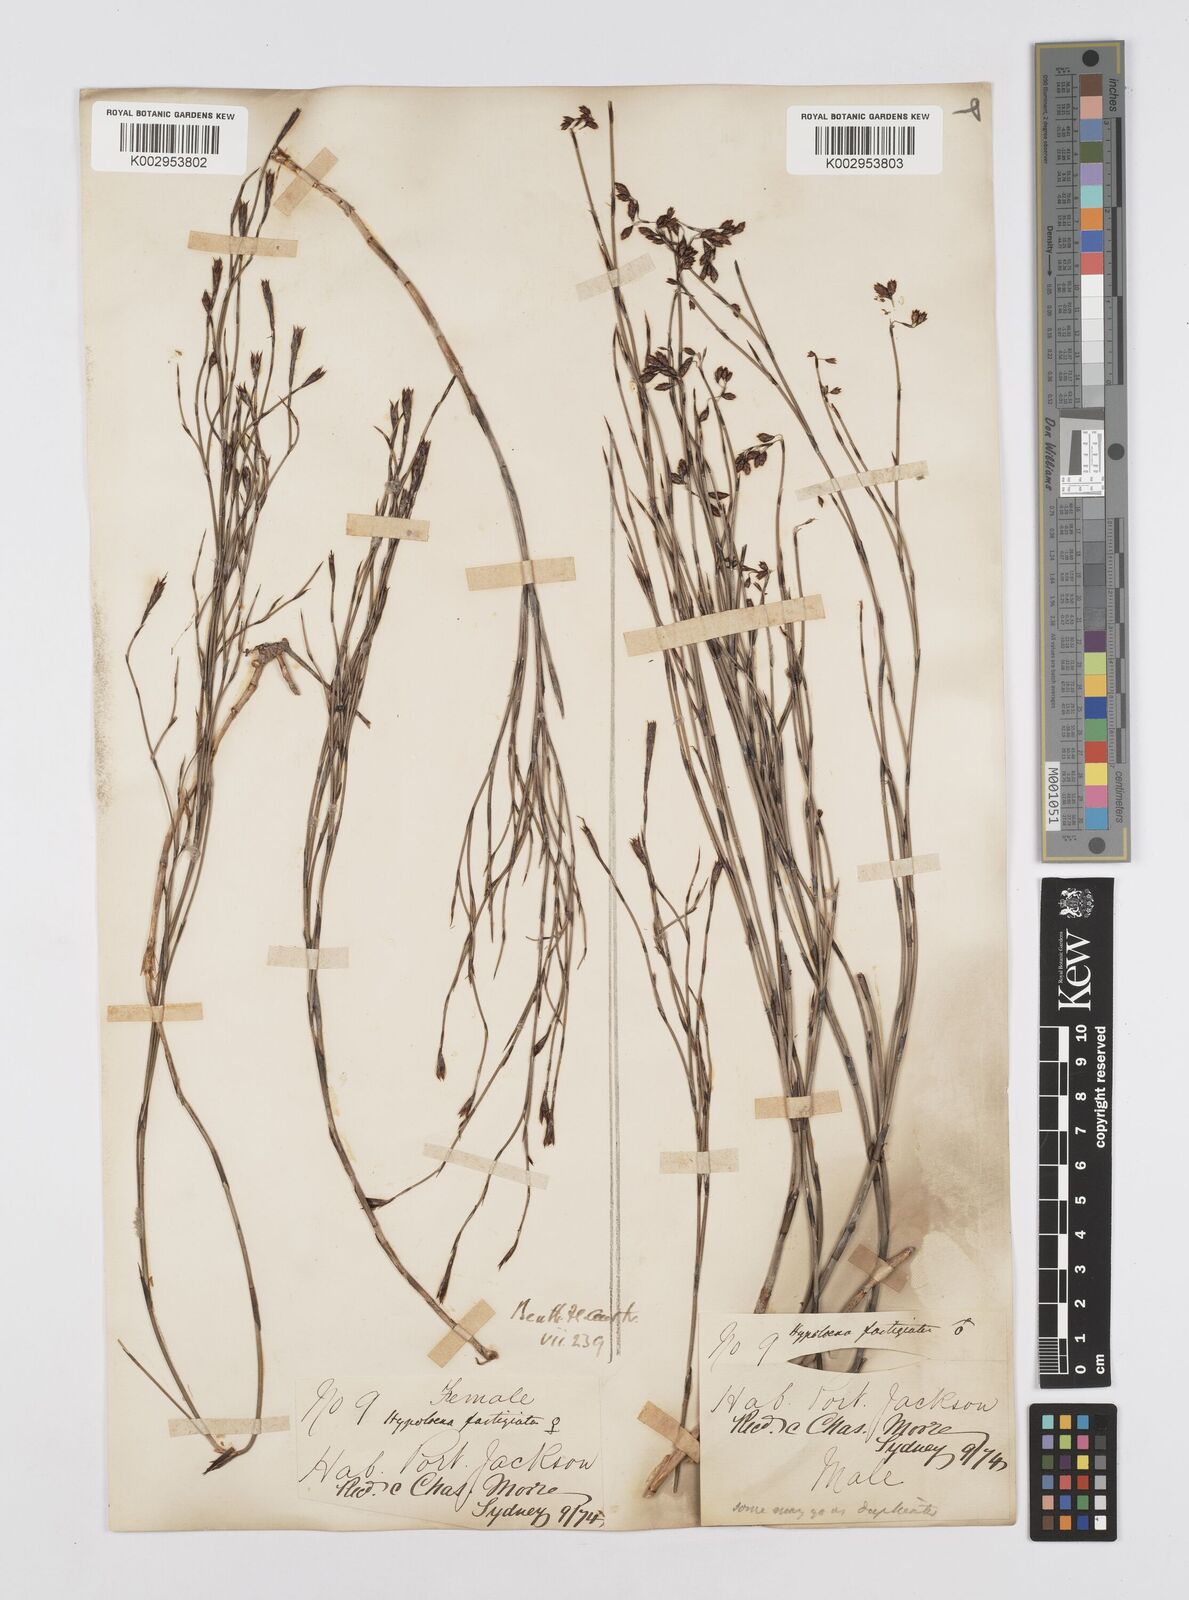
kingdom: Plantae
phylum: Tracheophyta
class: Liliopsida
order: Poales
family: Restionaceae
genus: Hypolaena
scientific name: Hypolaena fastigiata
